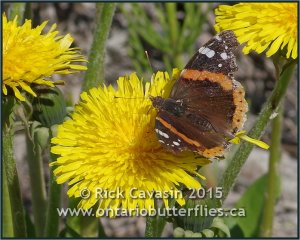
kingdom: Animalia
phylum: Arthropoda
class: Insecta
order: Lepidoptera
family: Nymphalidae
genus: Vanessa
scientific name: Vanessa atalanta
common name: Red Admiral
